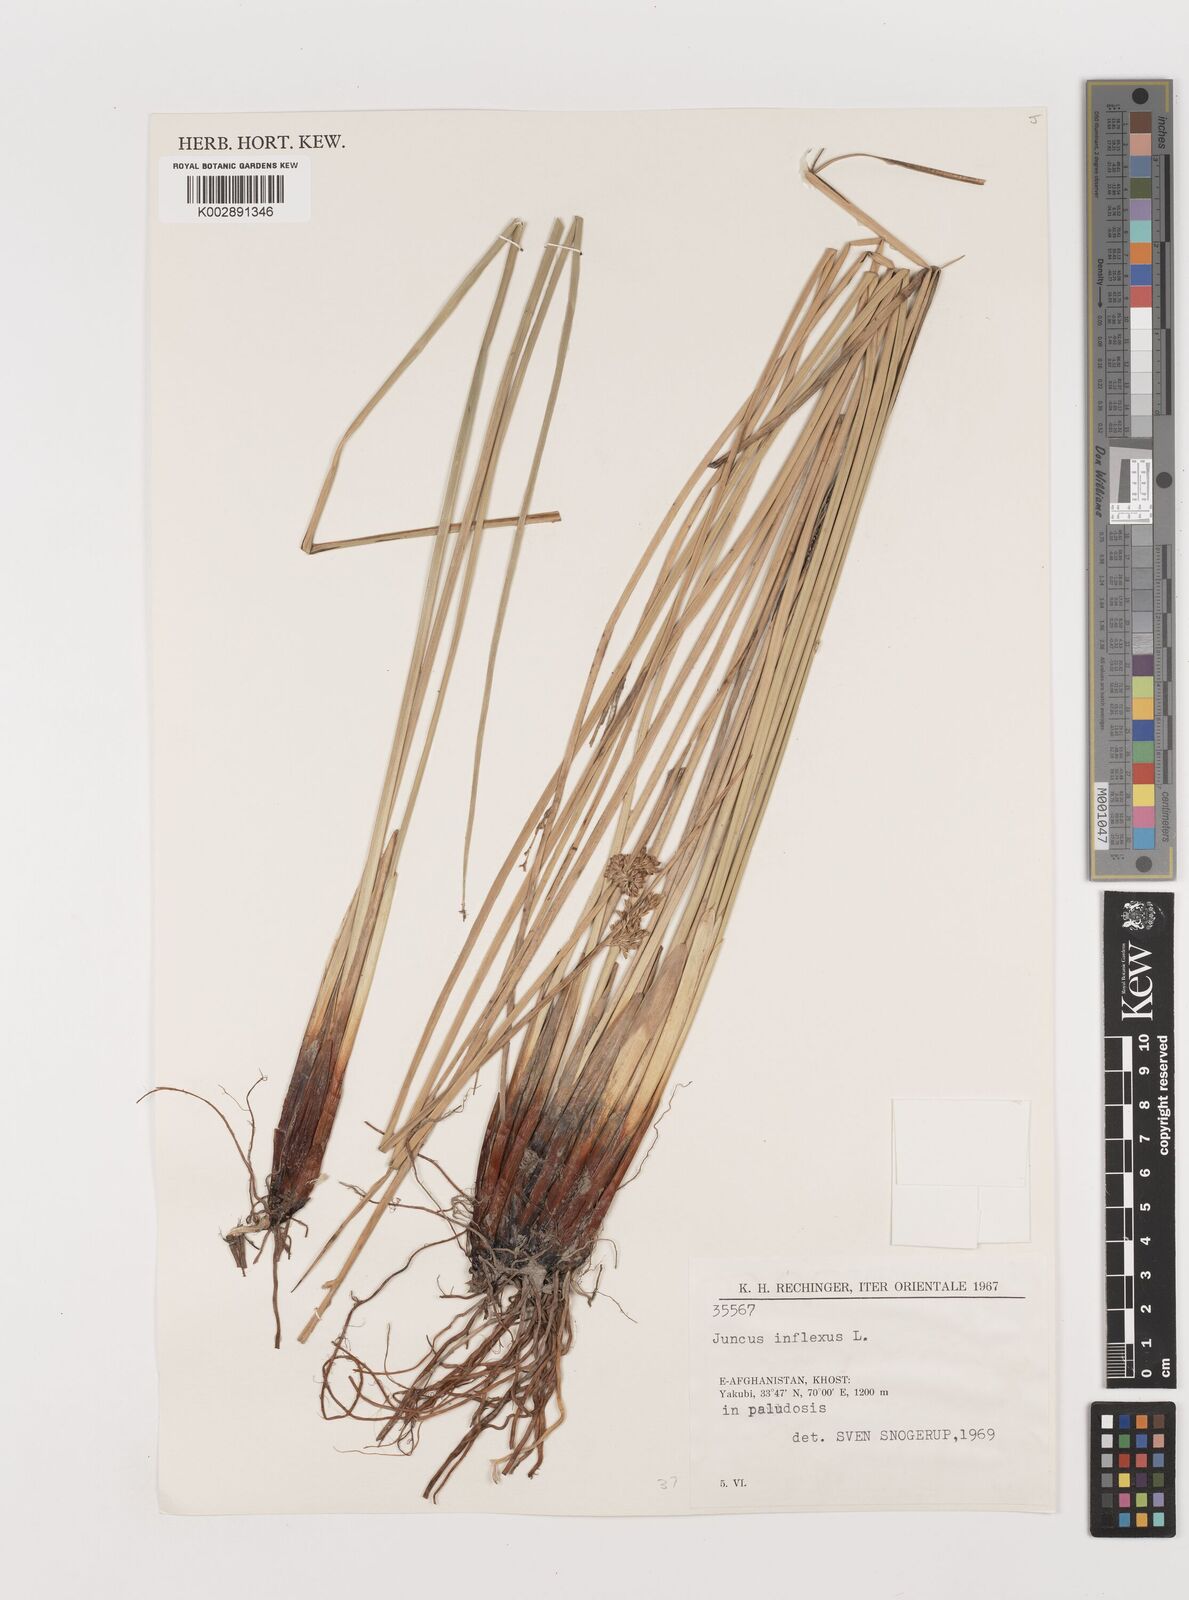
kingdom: Plantae
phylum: Tracheophyta
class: Liliopsida
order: Poales
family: Juncaceae
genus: Juncus
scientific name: Juncus inflexus
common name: Hard rush
